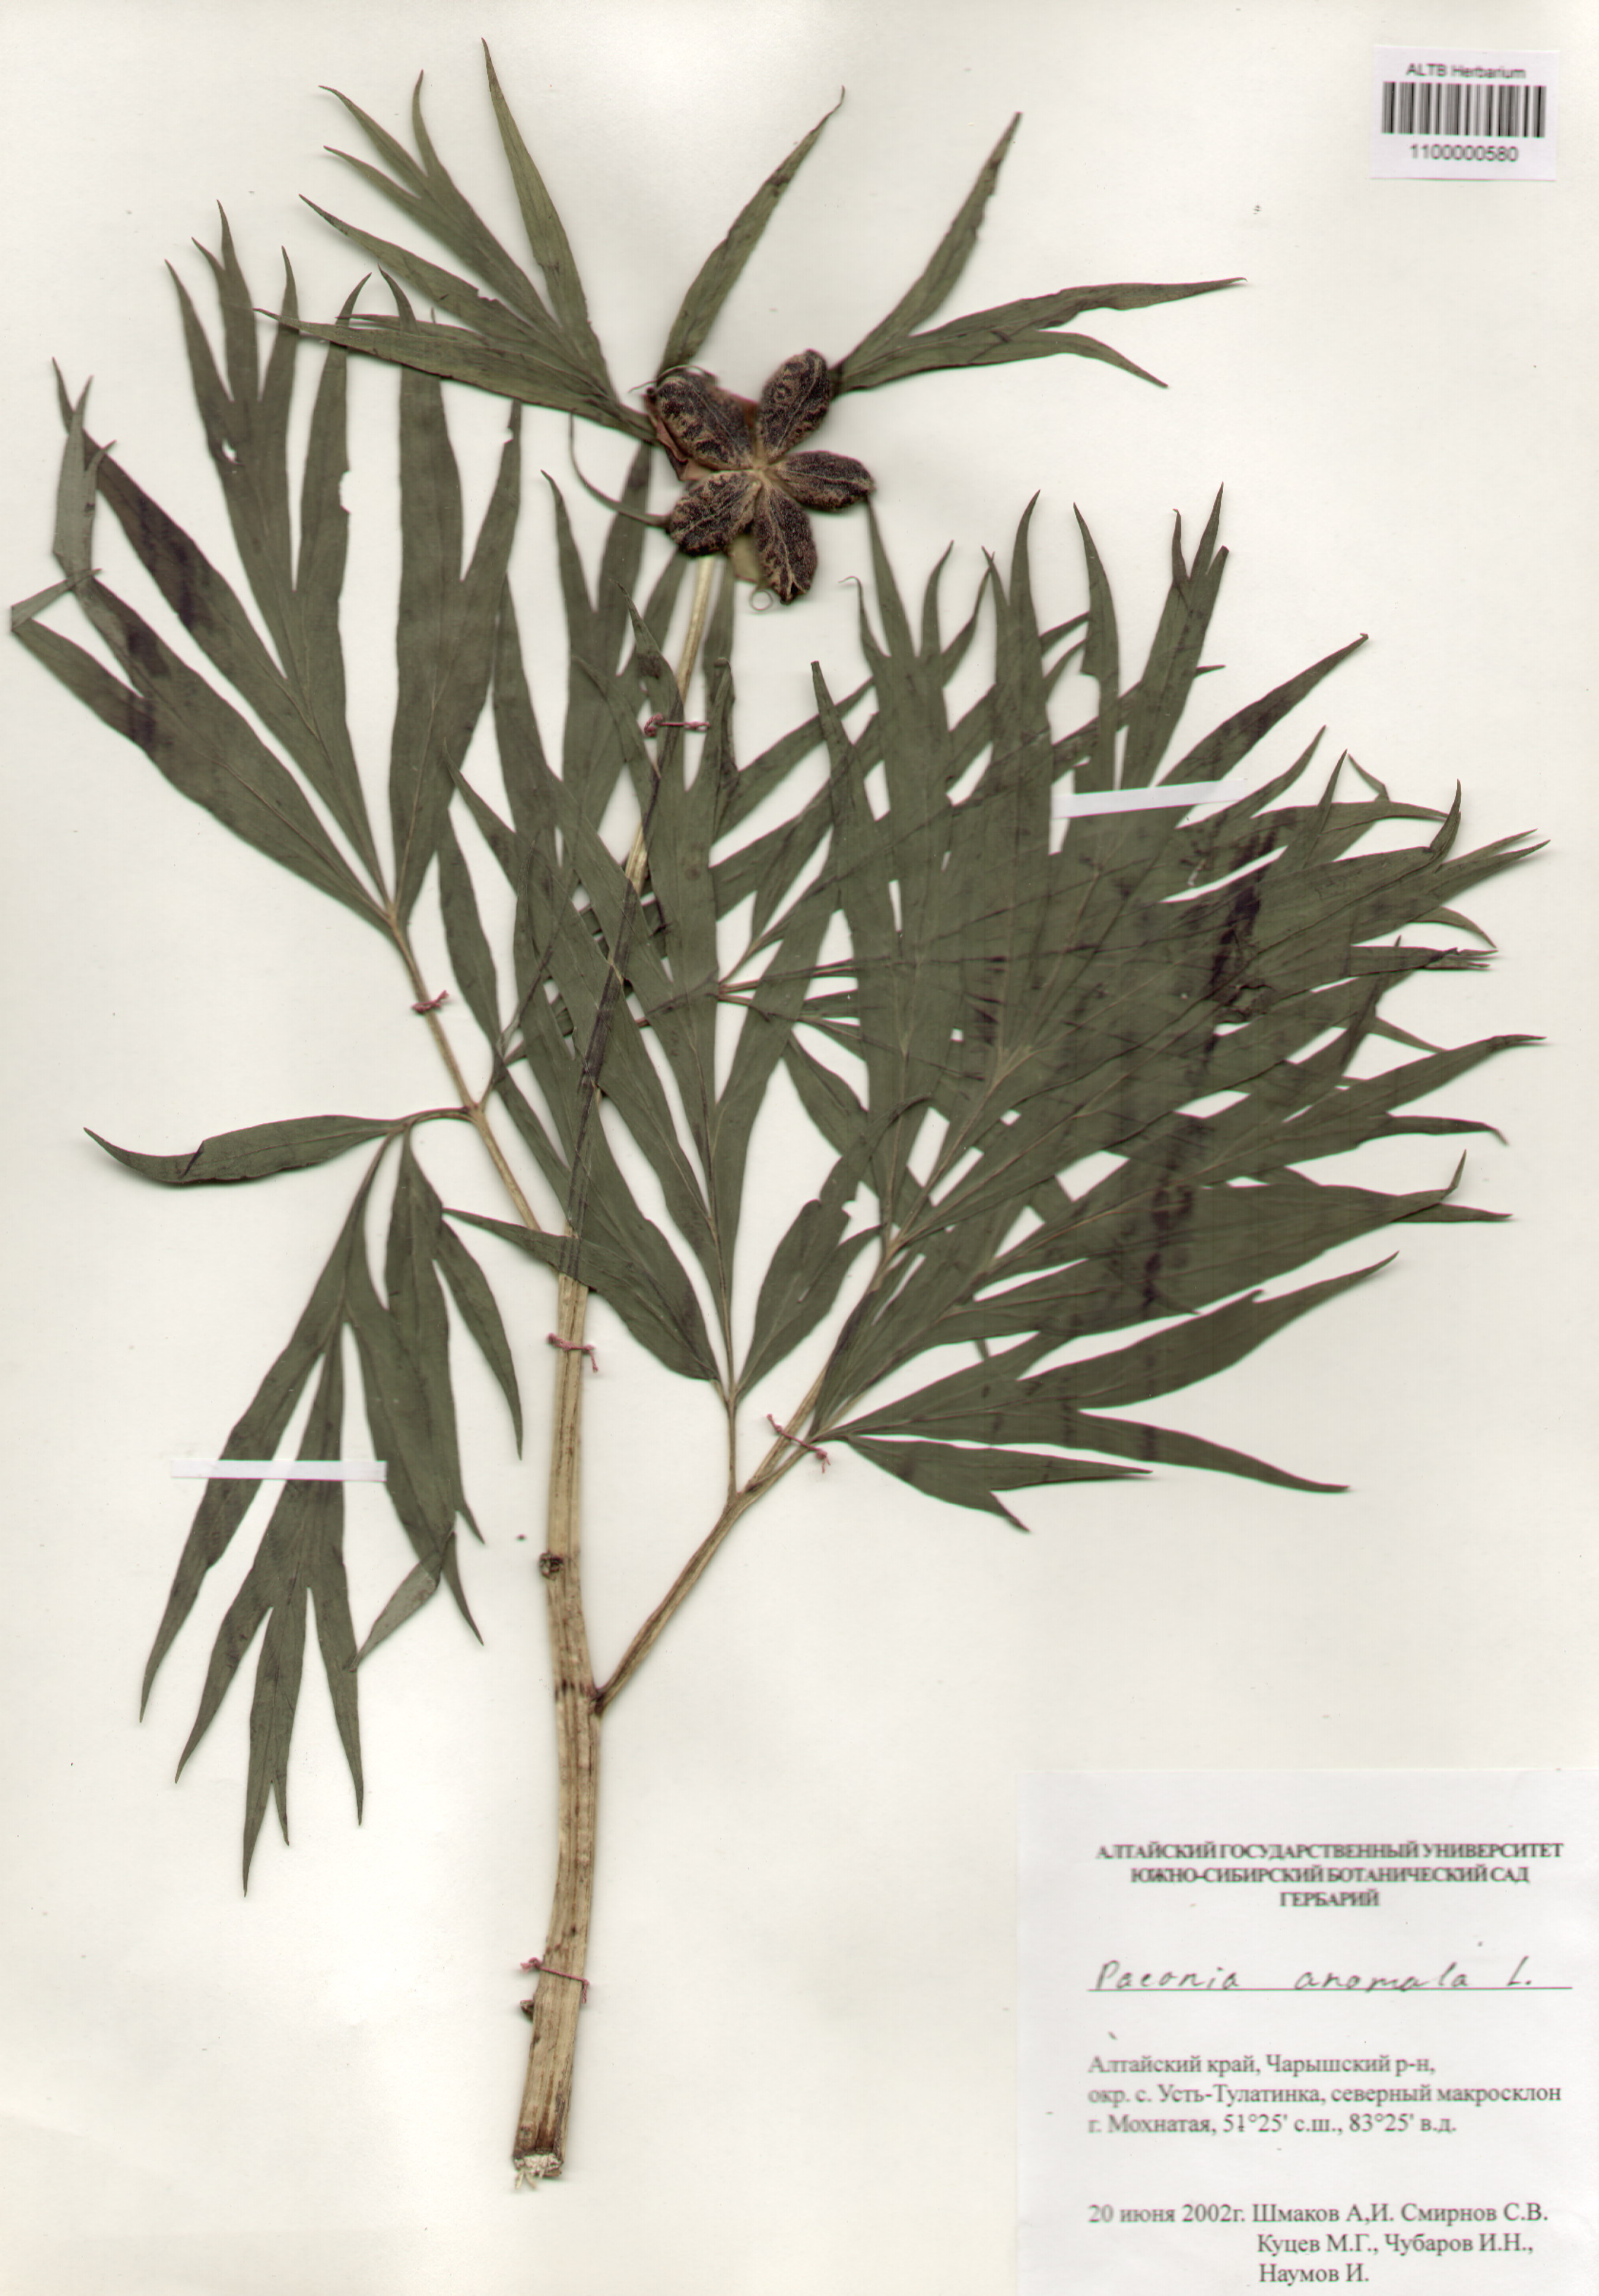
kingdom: Plantae
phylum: Tracheophyta
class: Magnoliopsida
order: Saxifragales
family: Paeoniaceae
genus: Paeonia
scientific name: Paeonia anomala
